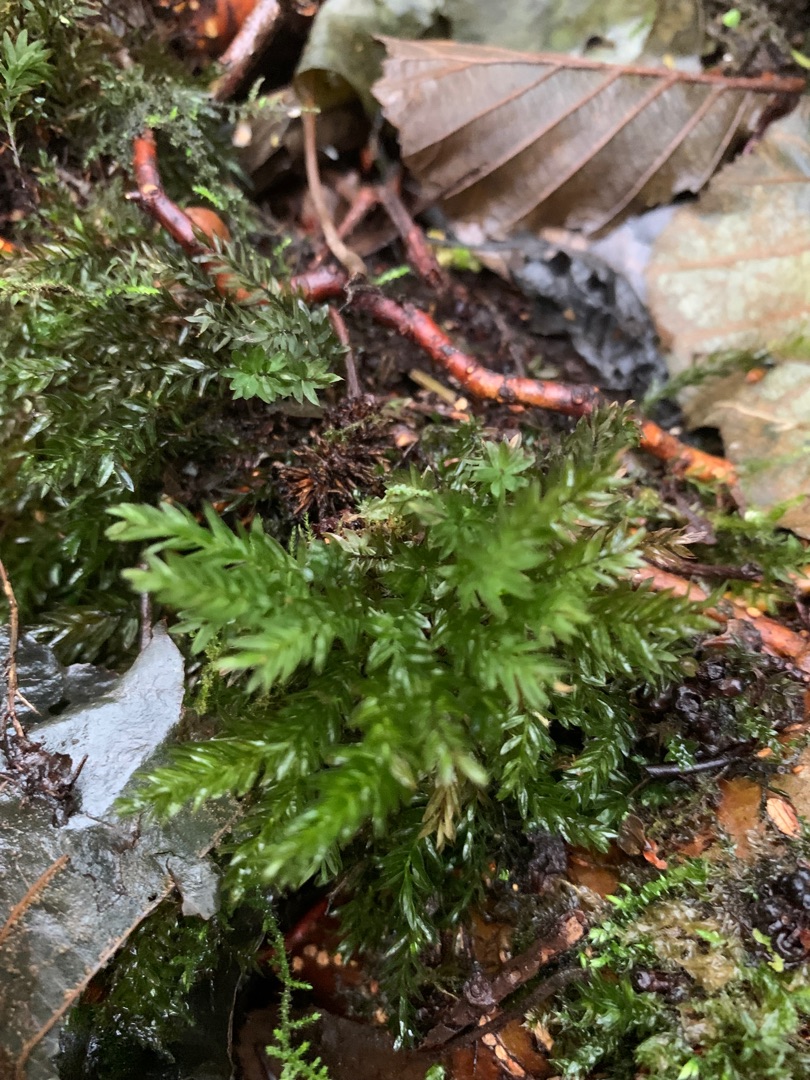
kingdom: Plantae
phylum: Bryophyta
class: Bryopsida
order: Bryales
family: Mniaceae
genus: Mnium
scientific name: Mnium hornum
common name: Brunfiltet stjernemos
